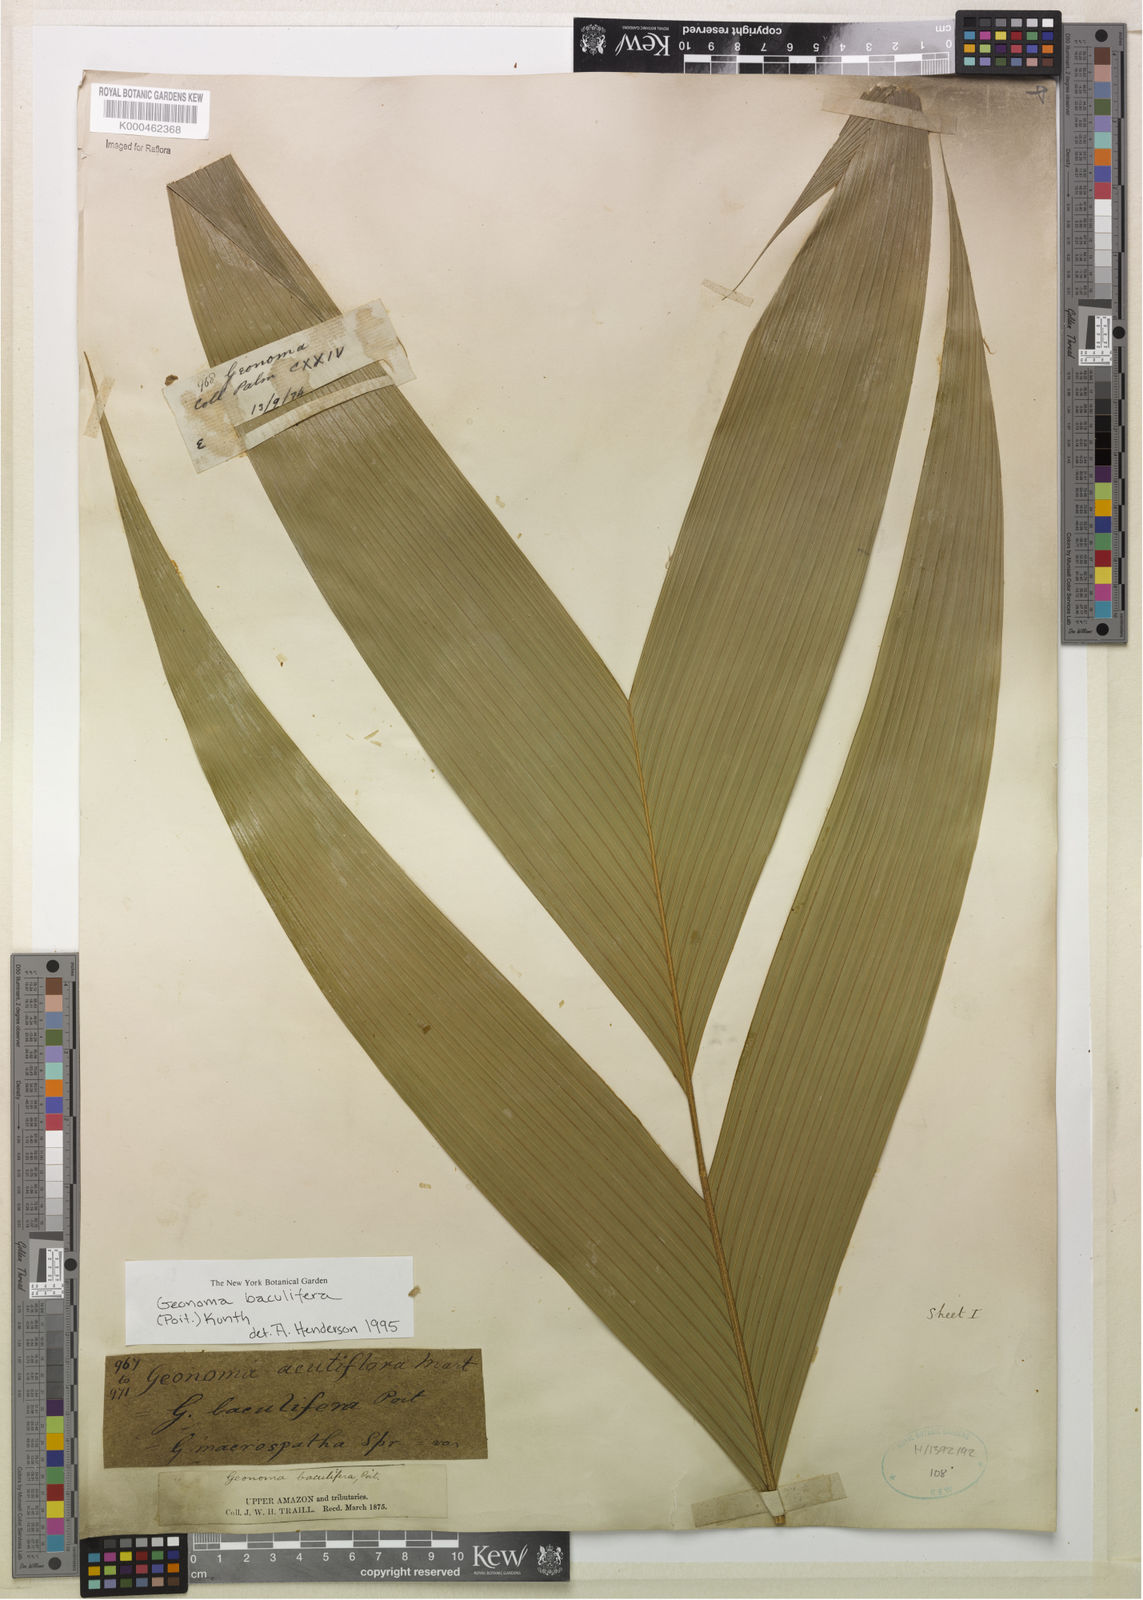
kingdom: Plantae
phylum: Tracheophyta
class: Liliopsida
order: Arecales
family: Arecaceae
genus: Geonoma
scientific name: Geonoma baculifera
